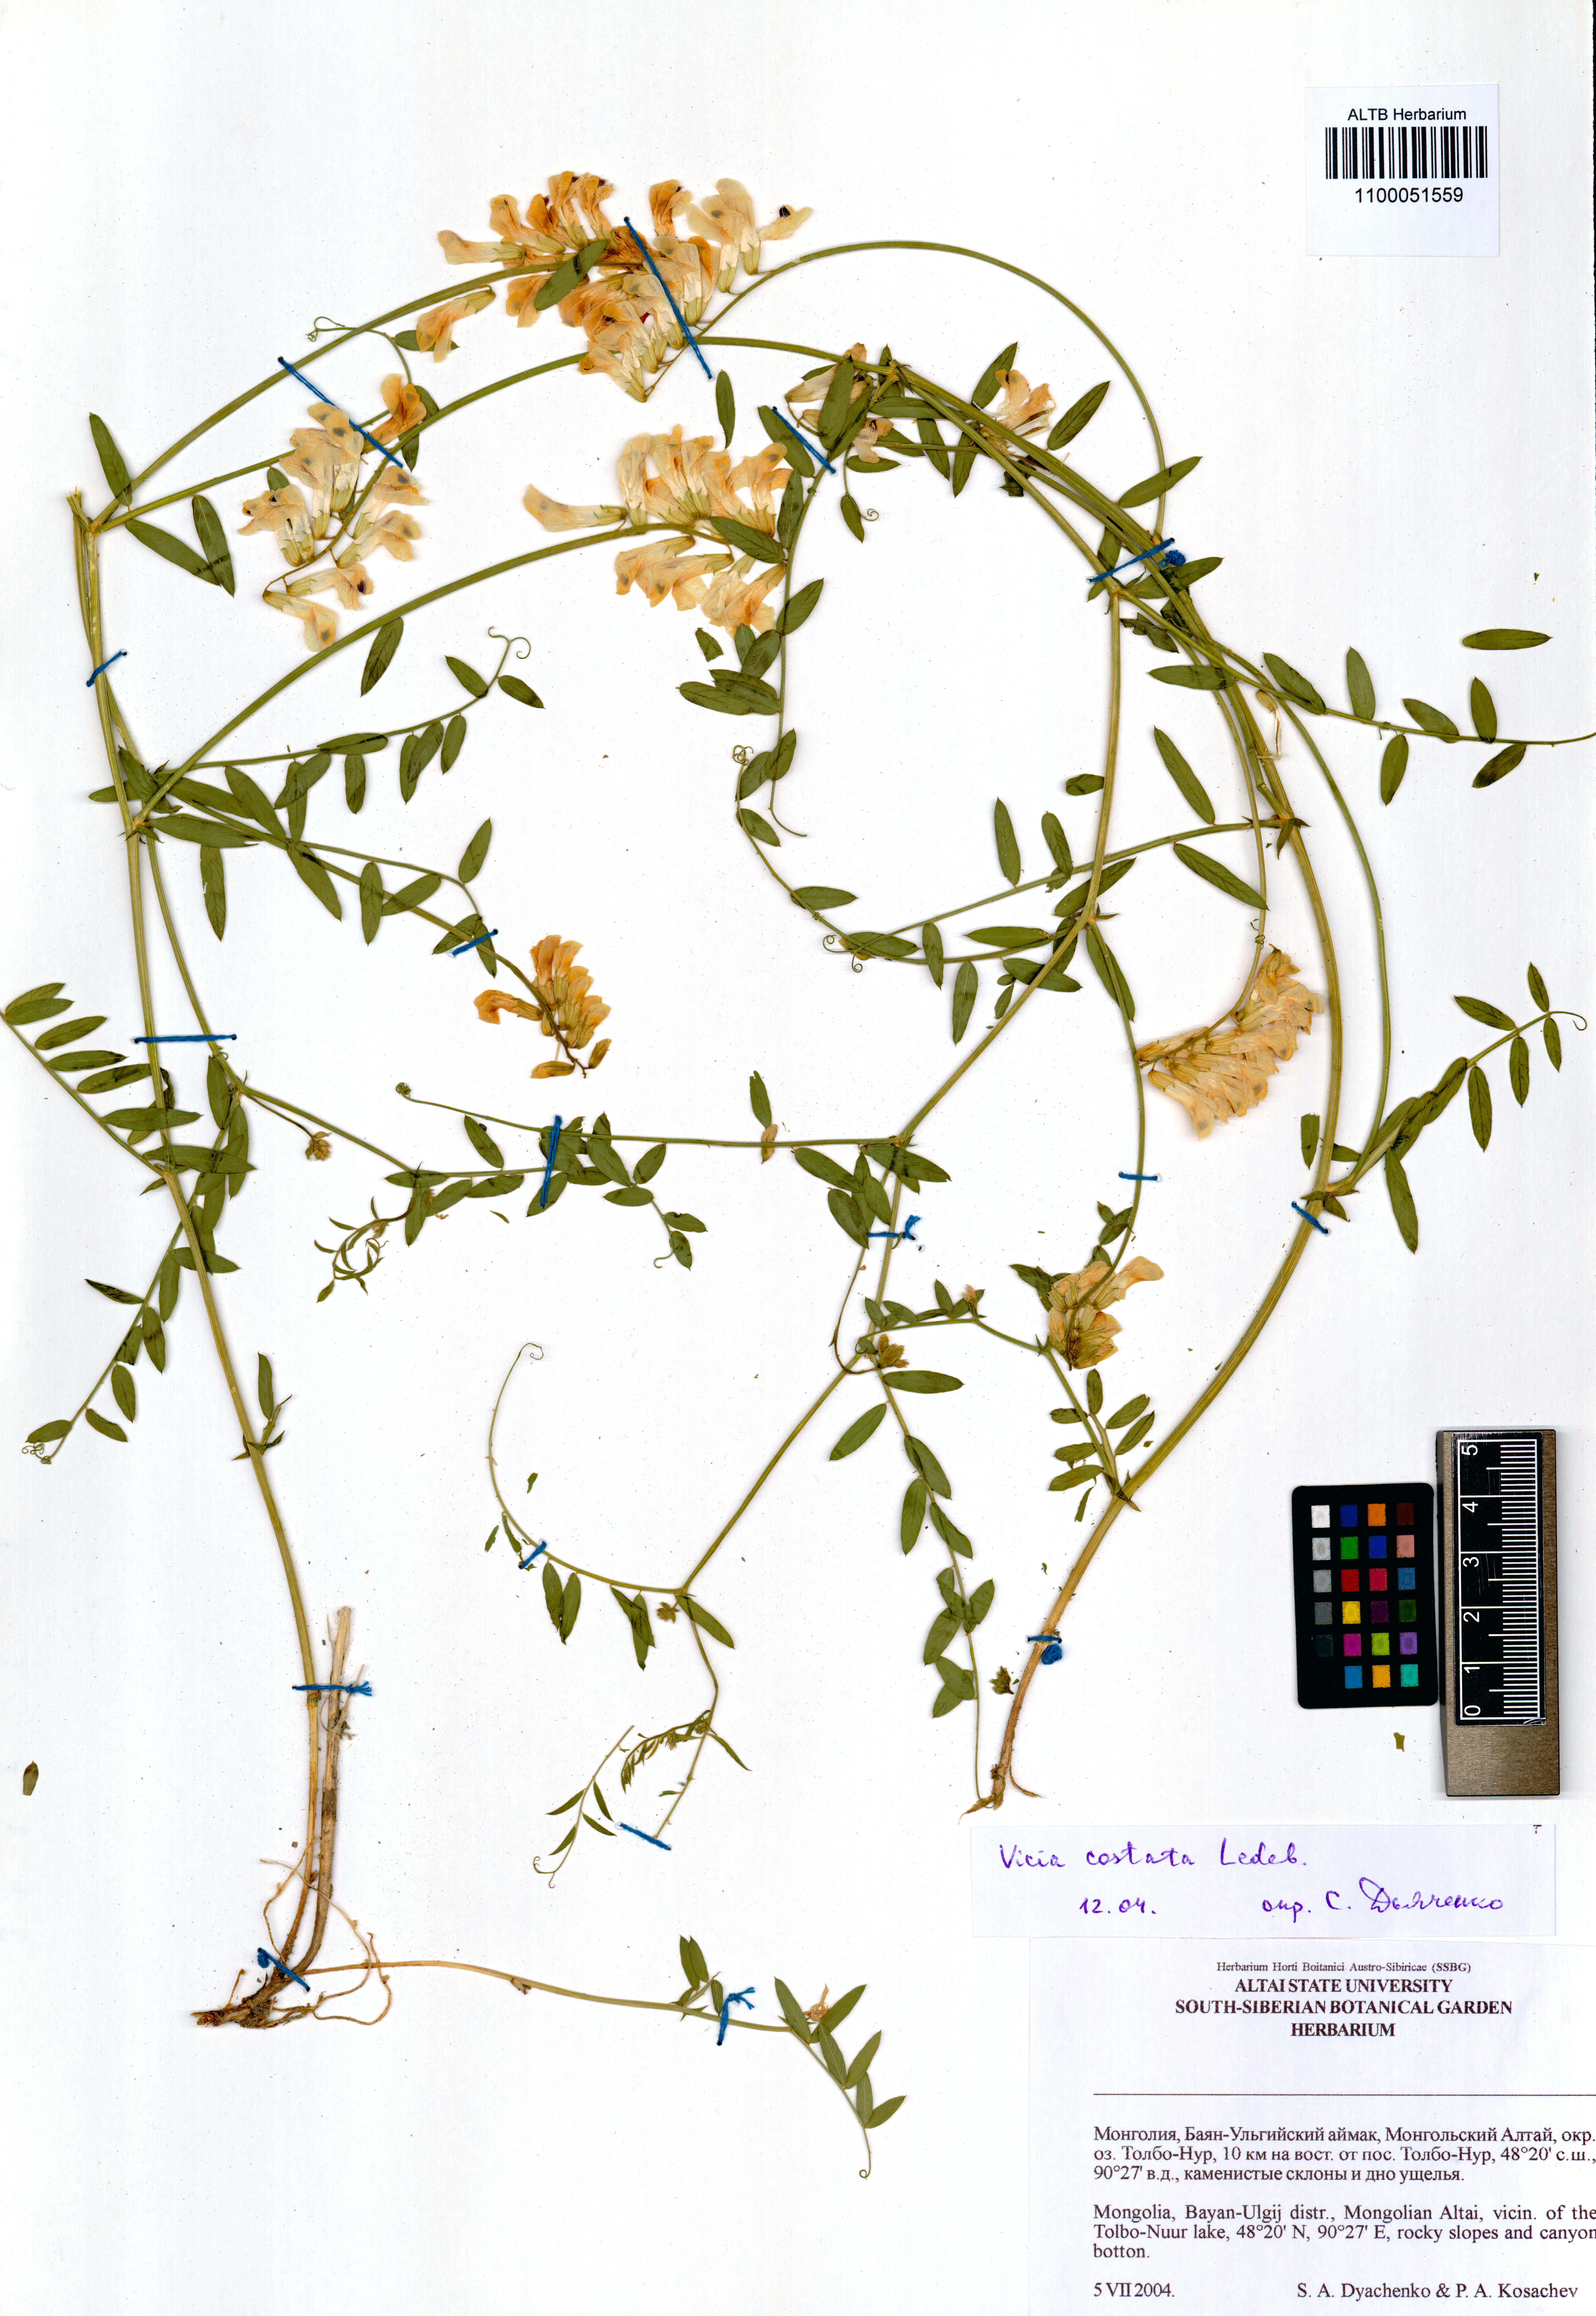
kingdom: Plantae
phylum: Tracheophyta
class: Magnoliopsida
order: Fabales
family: Fabaceae
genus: Vicia
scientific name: Vicia costata
